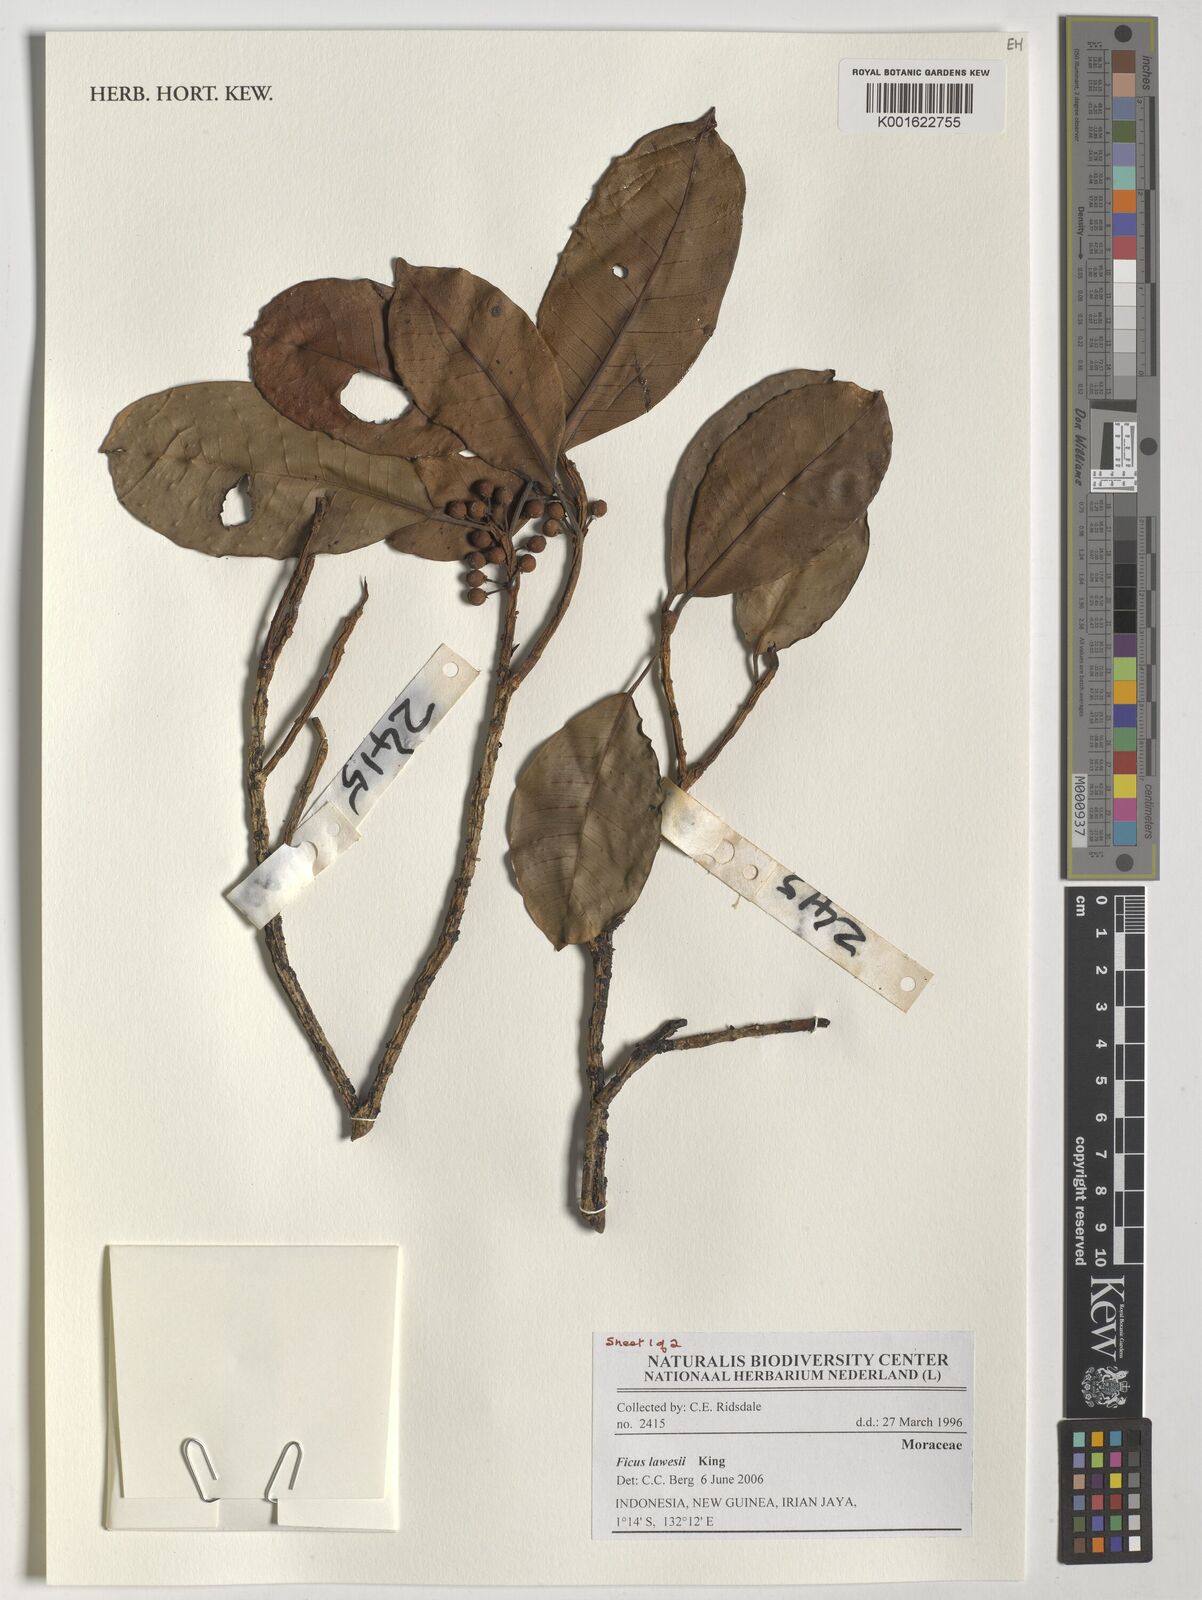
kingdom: Plantae
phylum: Tracheophyta
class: Magnoliopsida
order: Rosales
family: Moraceae
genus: Ficus
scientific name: Ficus lawesii
